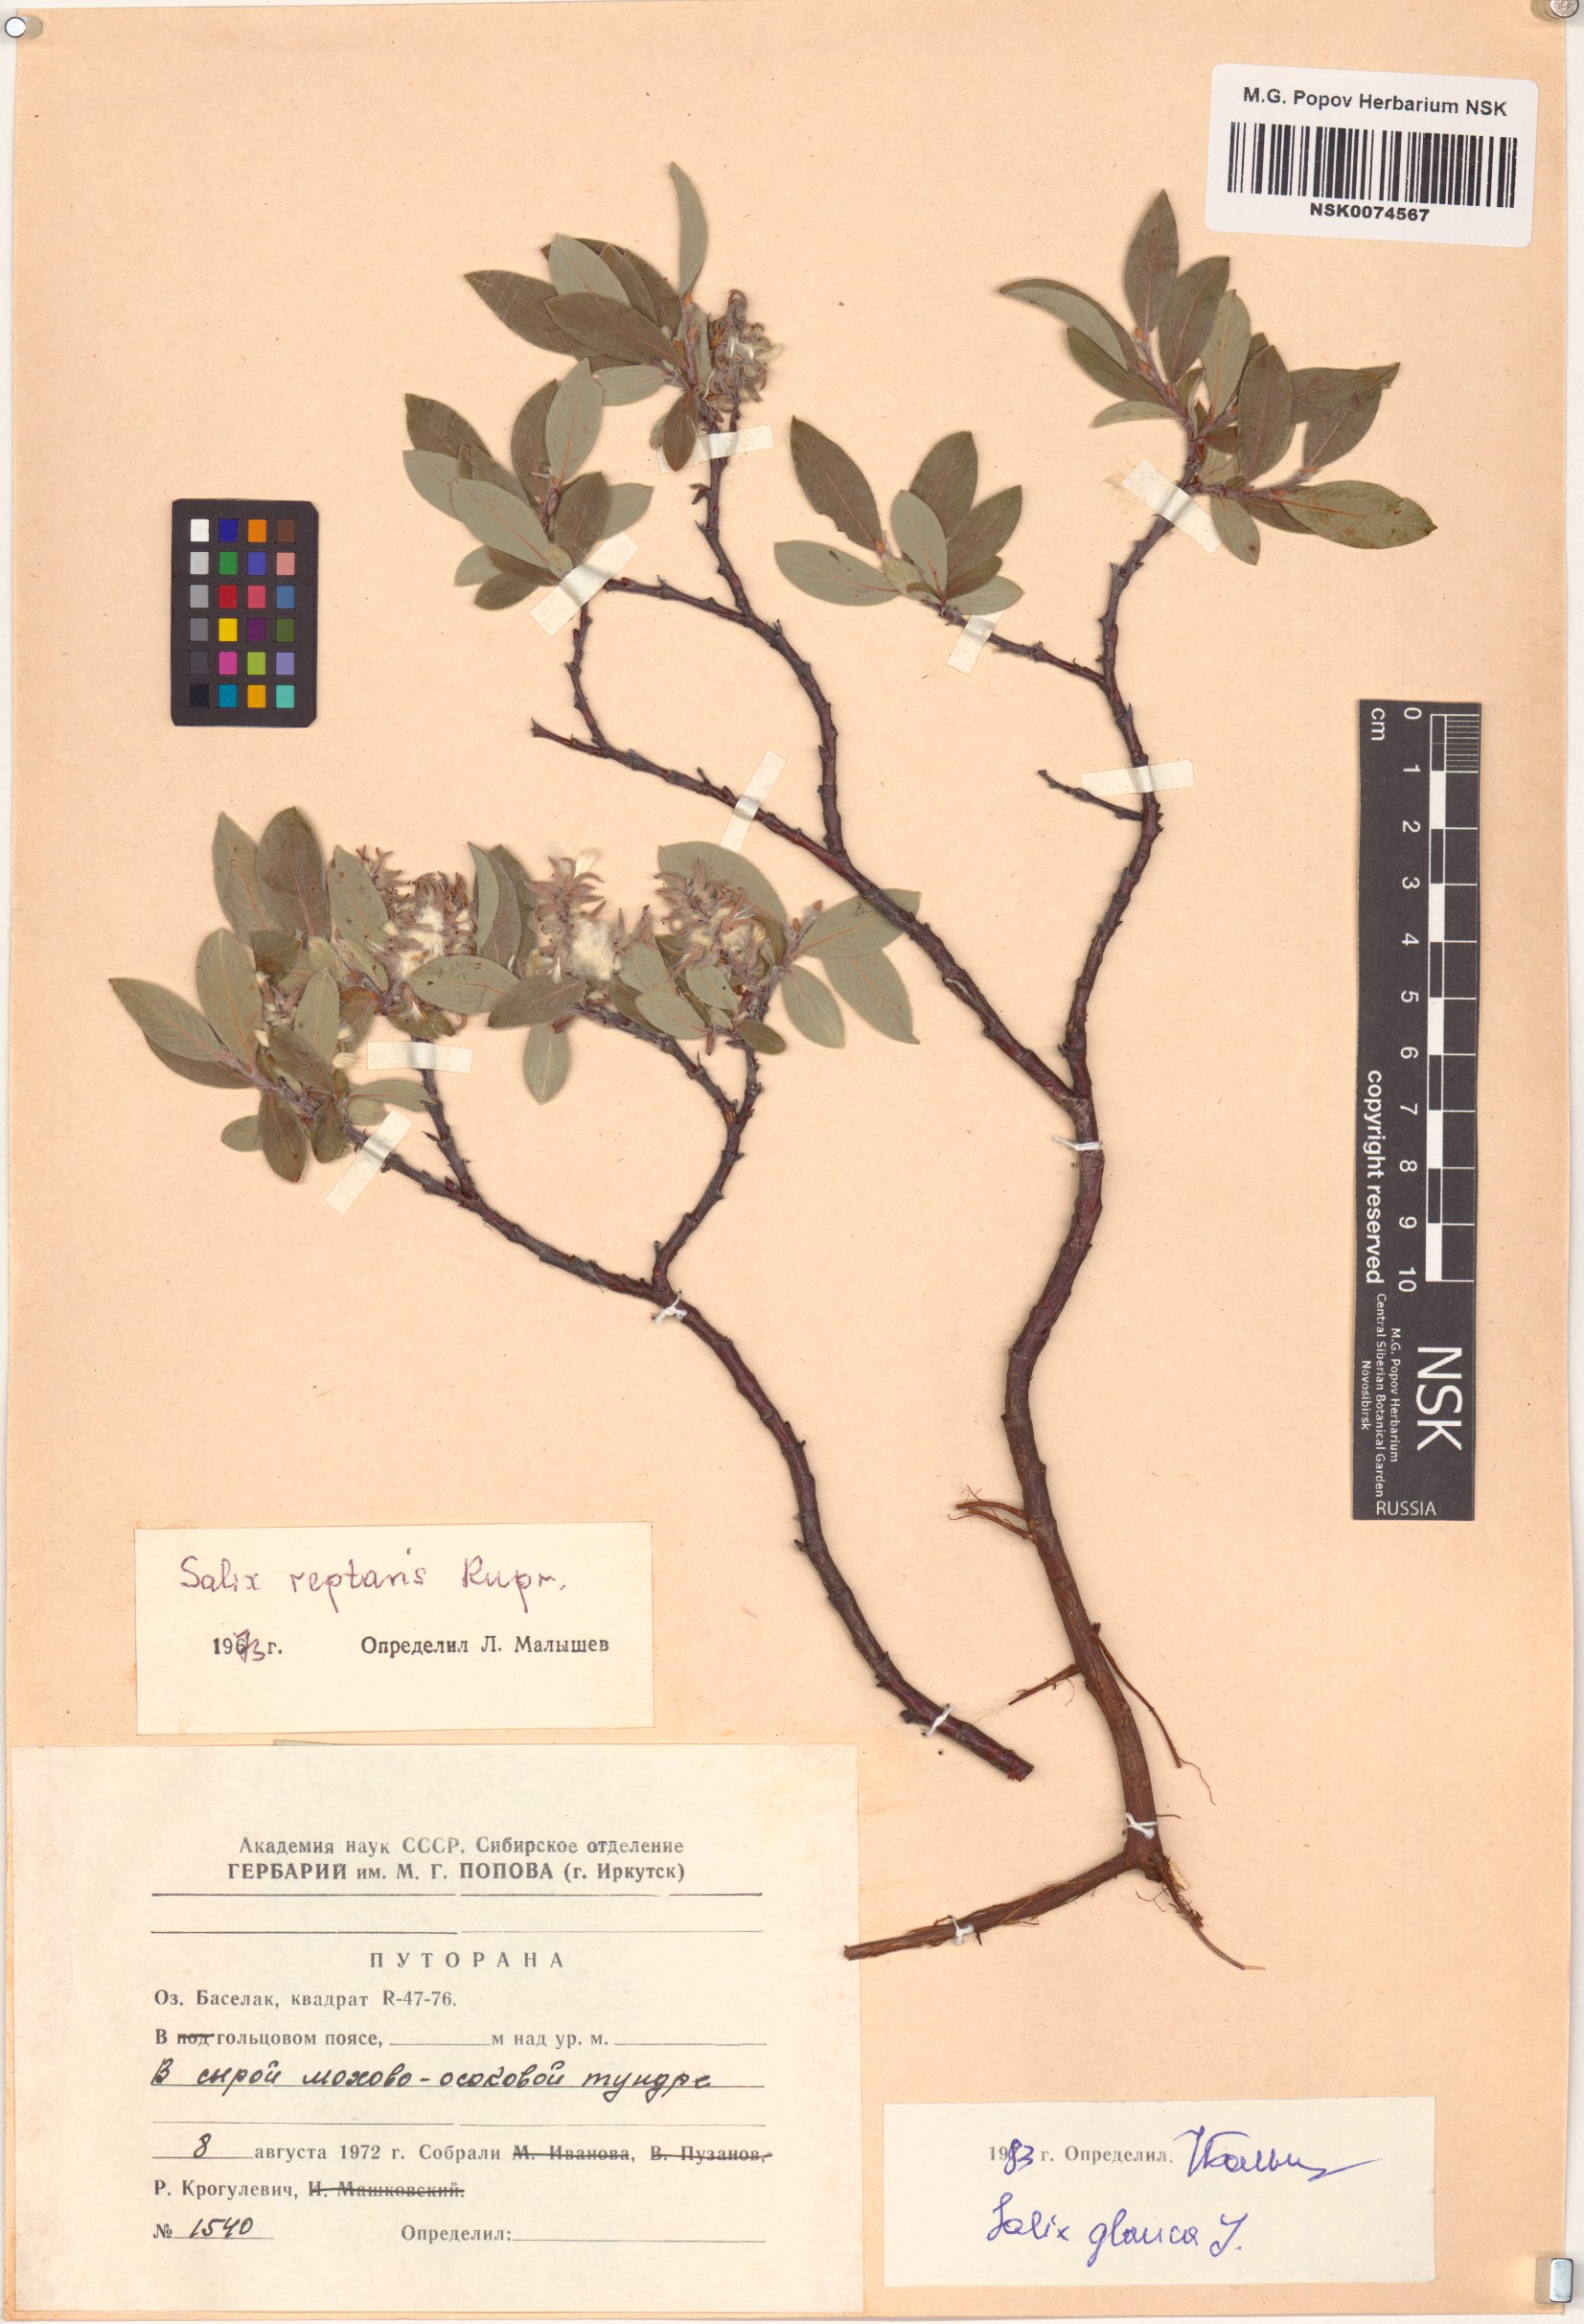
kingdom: Plantae
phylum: Tracheophyta
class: Magnoliopsida
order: Malpighiales
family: Salicaceae
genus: Salix
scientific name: Salix glauca
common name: Glaucous willow
